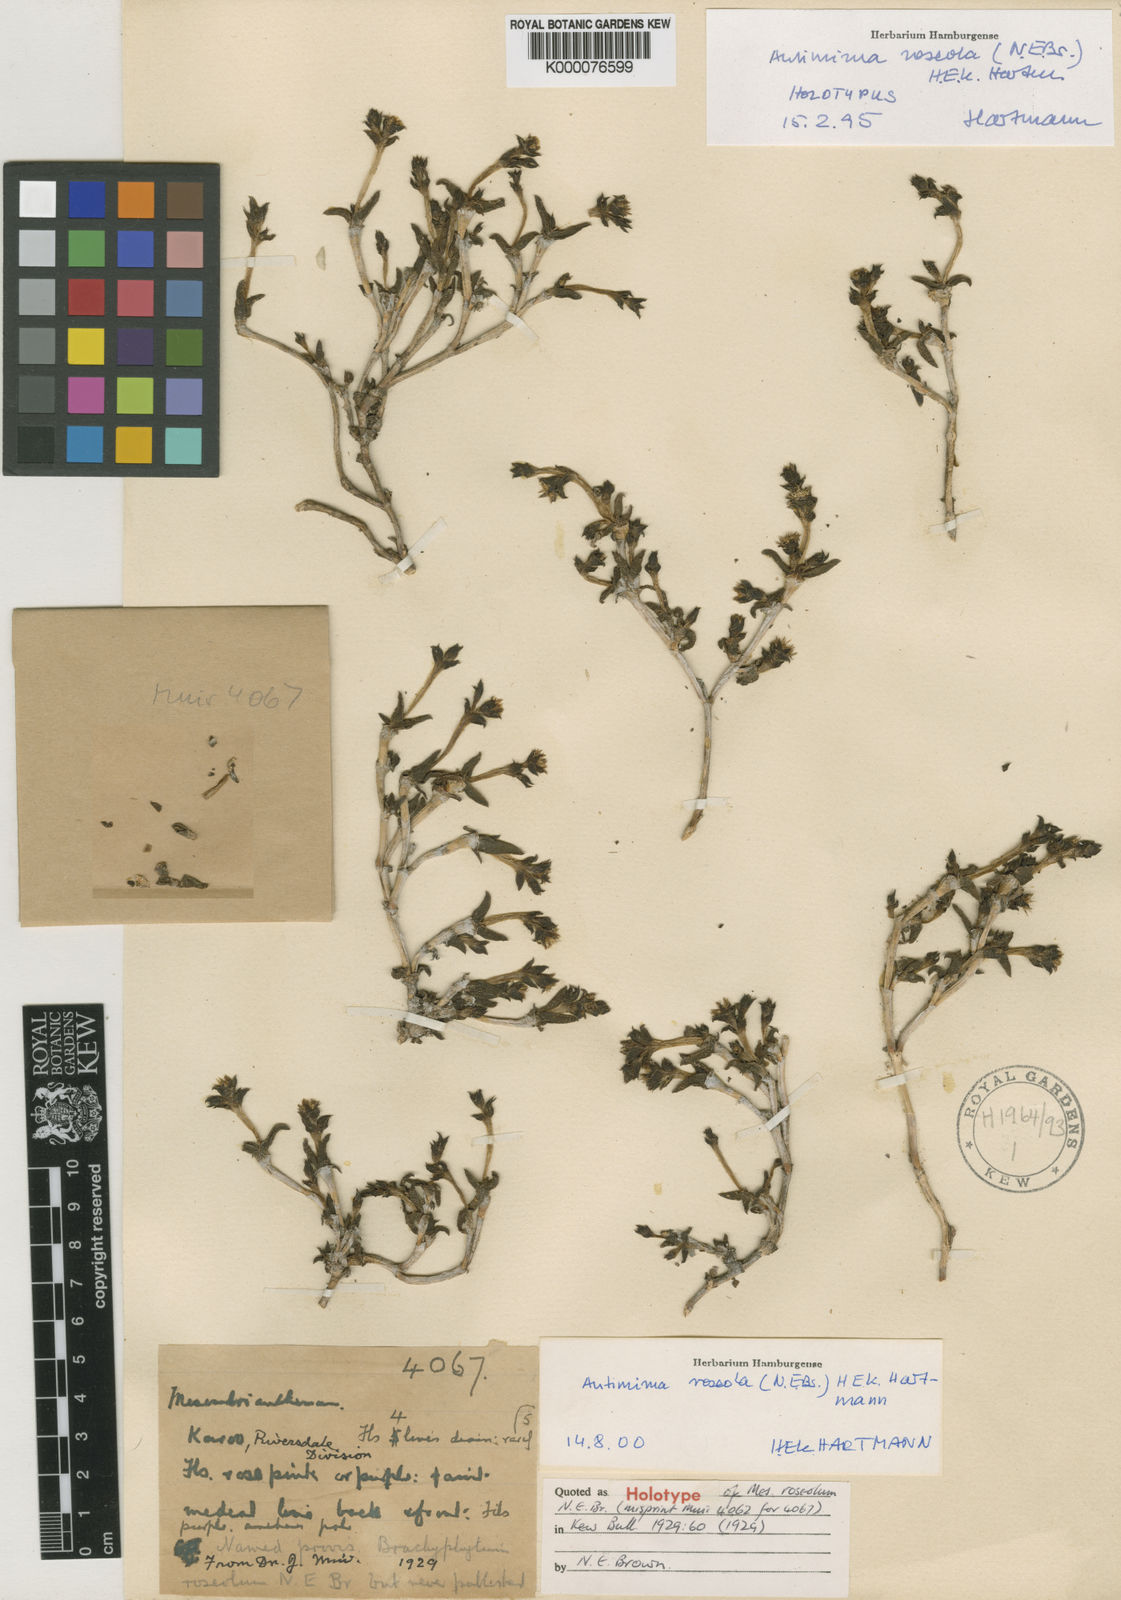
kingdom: Plantae
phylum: Tracheophyta
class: Magnoliopsida
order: Caryophyllales
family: Aizoaceae
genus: Antimima
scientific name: Antimima roseola
